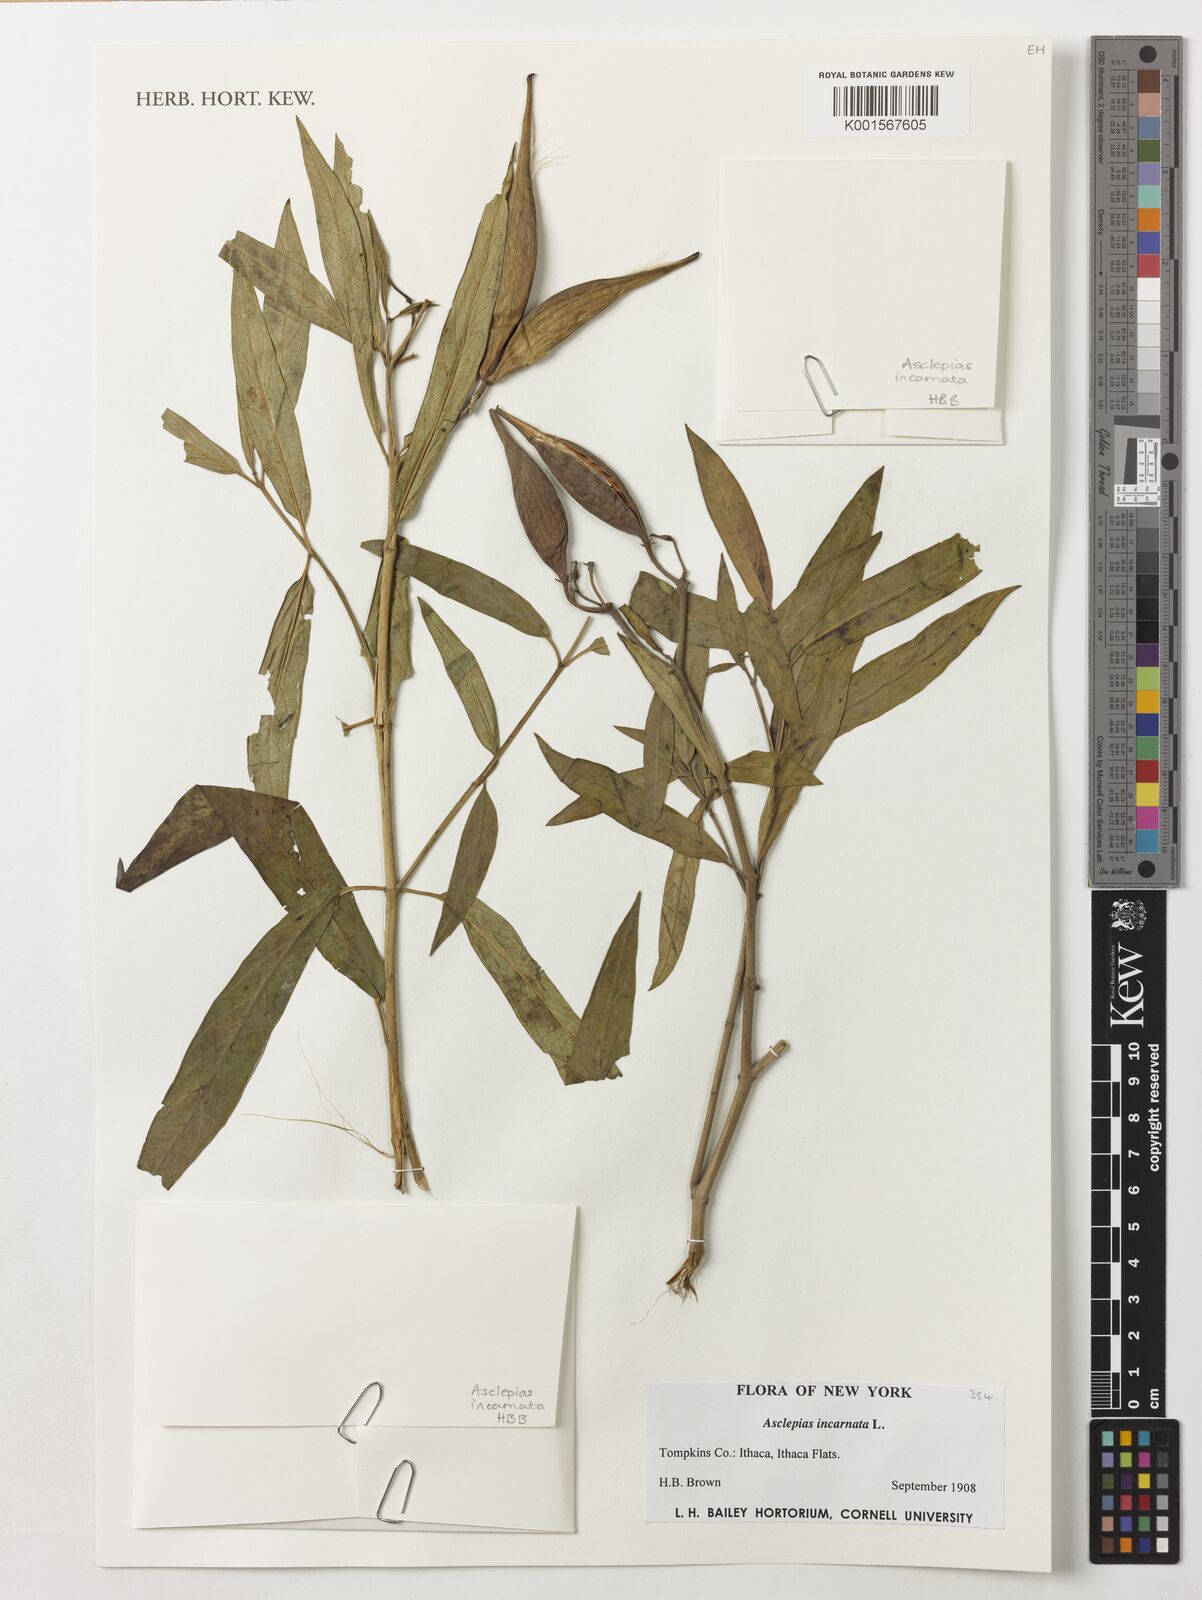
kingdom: Plantae
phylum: Tracheophyta
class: Magnoliopsida
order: Gentianales
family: Apocynaceae
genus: Asclepias
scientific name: Asclepias incarnata
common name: Swamp milkweed
